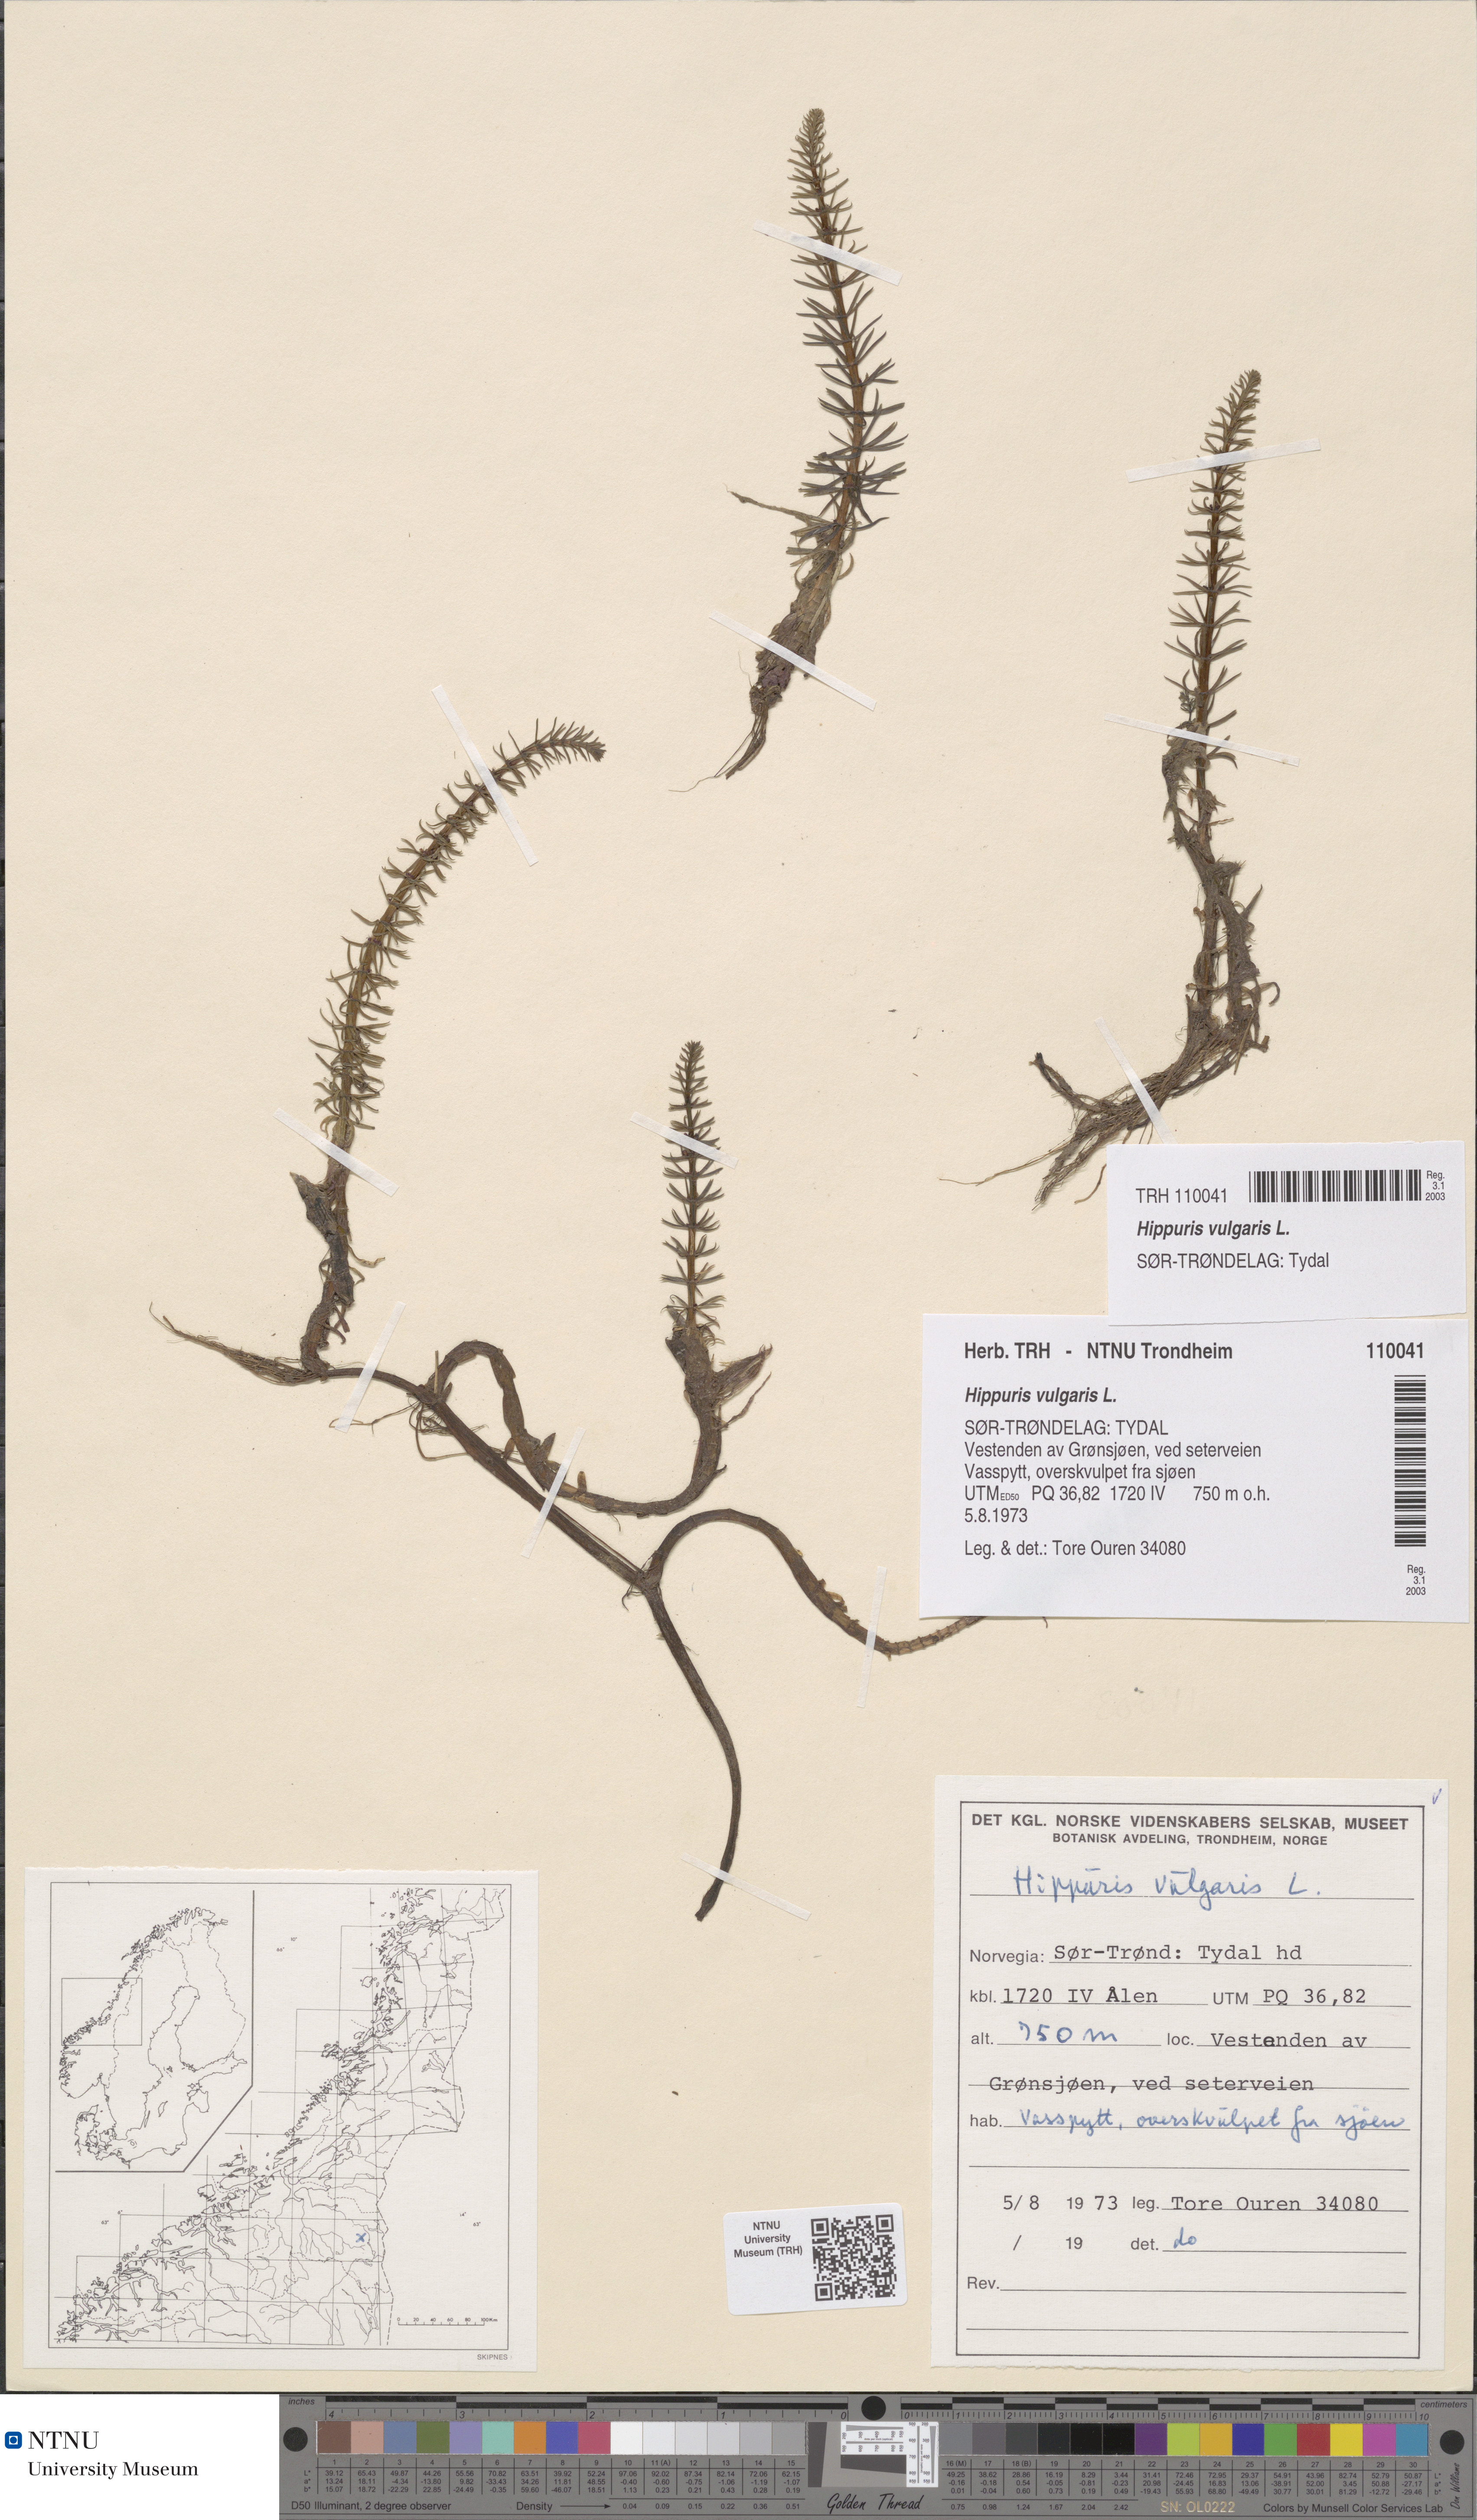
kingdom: Plantae
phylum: Tracheophyta
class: Magnoliopsida
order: Lamiales
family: Plantaginaceae
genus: Hippuris
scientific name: Hippuris vulgaris
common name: Mare's-tail
